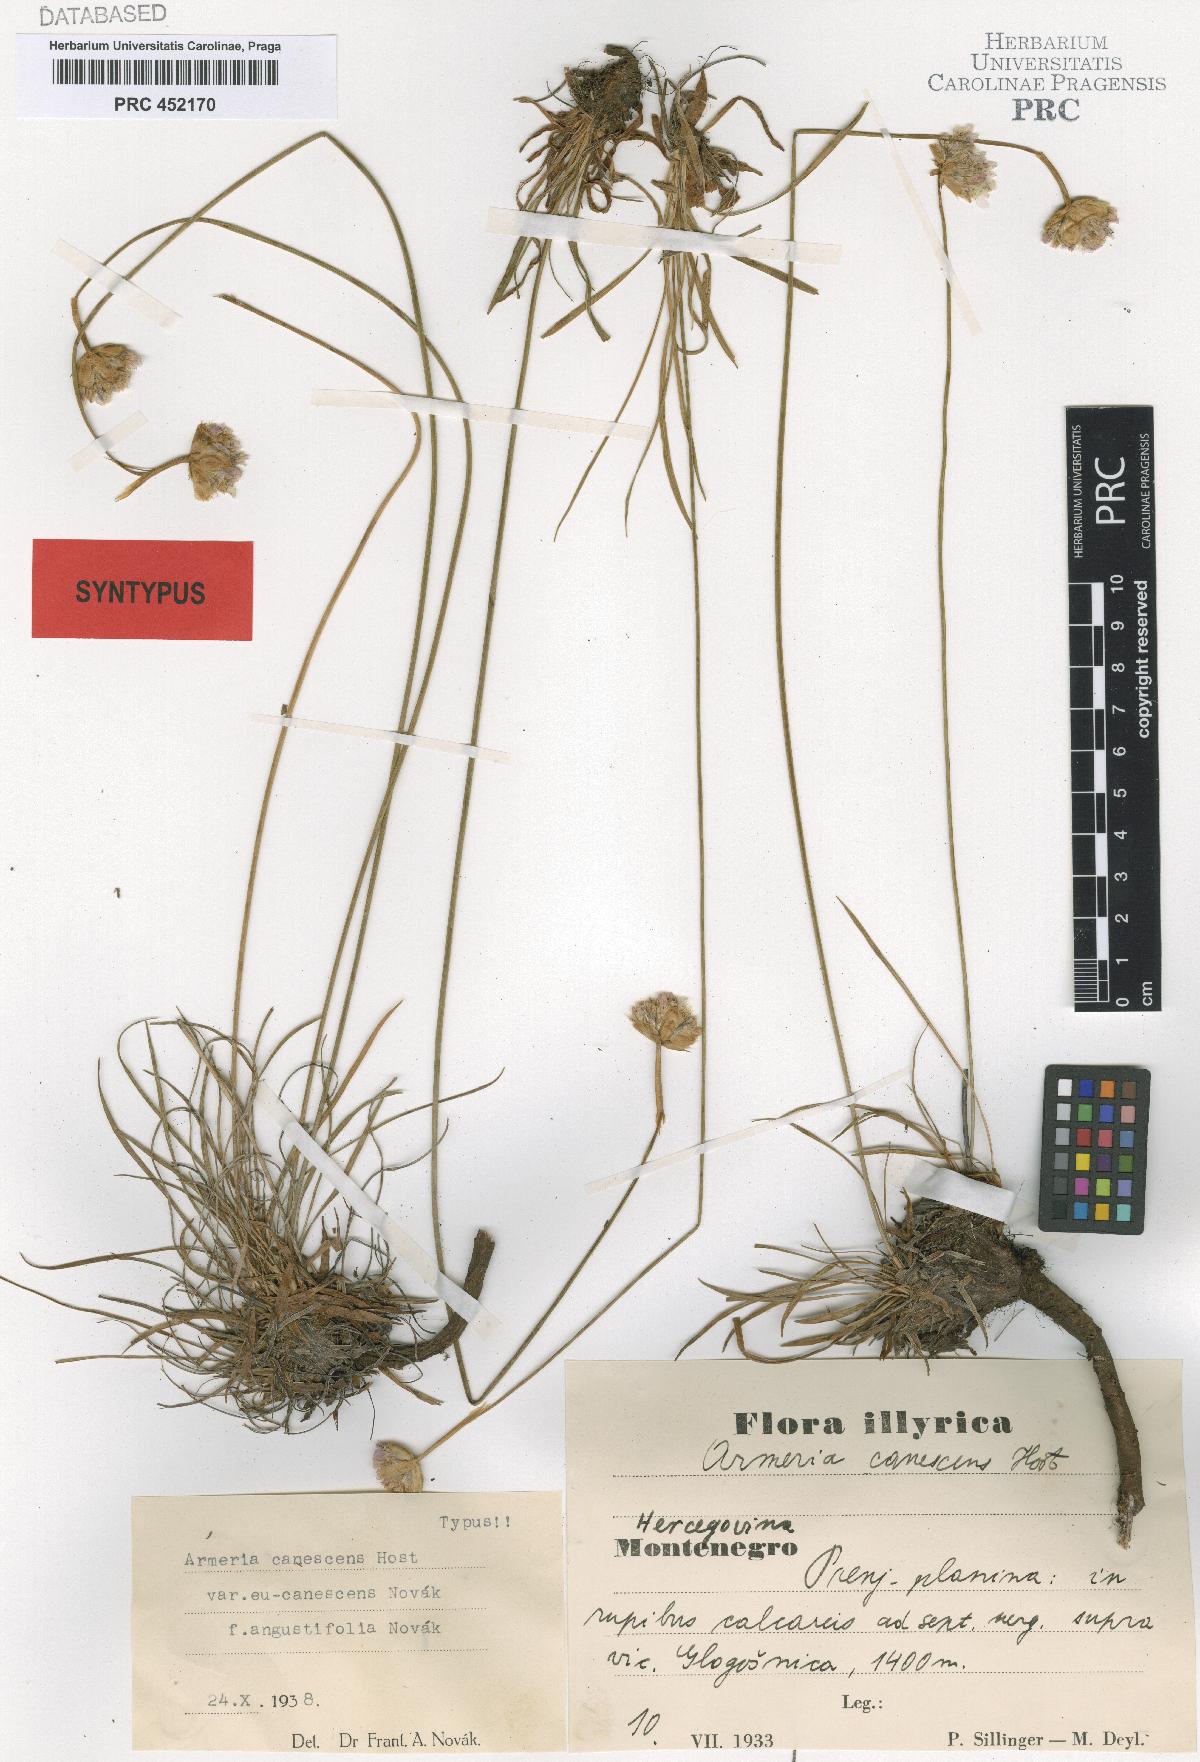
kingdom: Plantae
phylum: Tracheophyta
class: Magnoliopsida
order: Caryophyllales
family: Plumbaginaceae
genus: Armeria
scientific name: Armeria canescens
